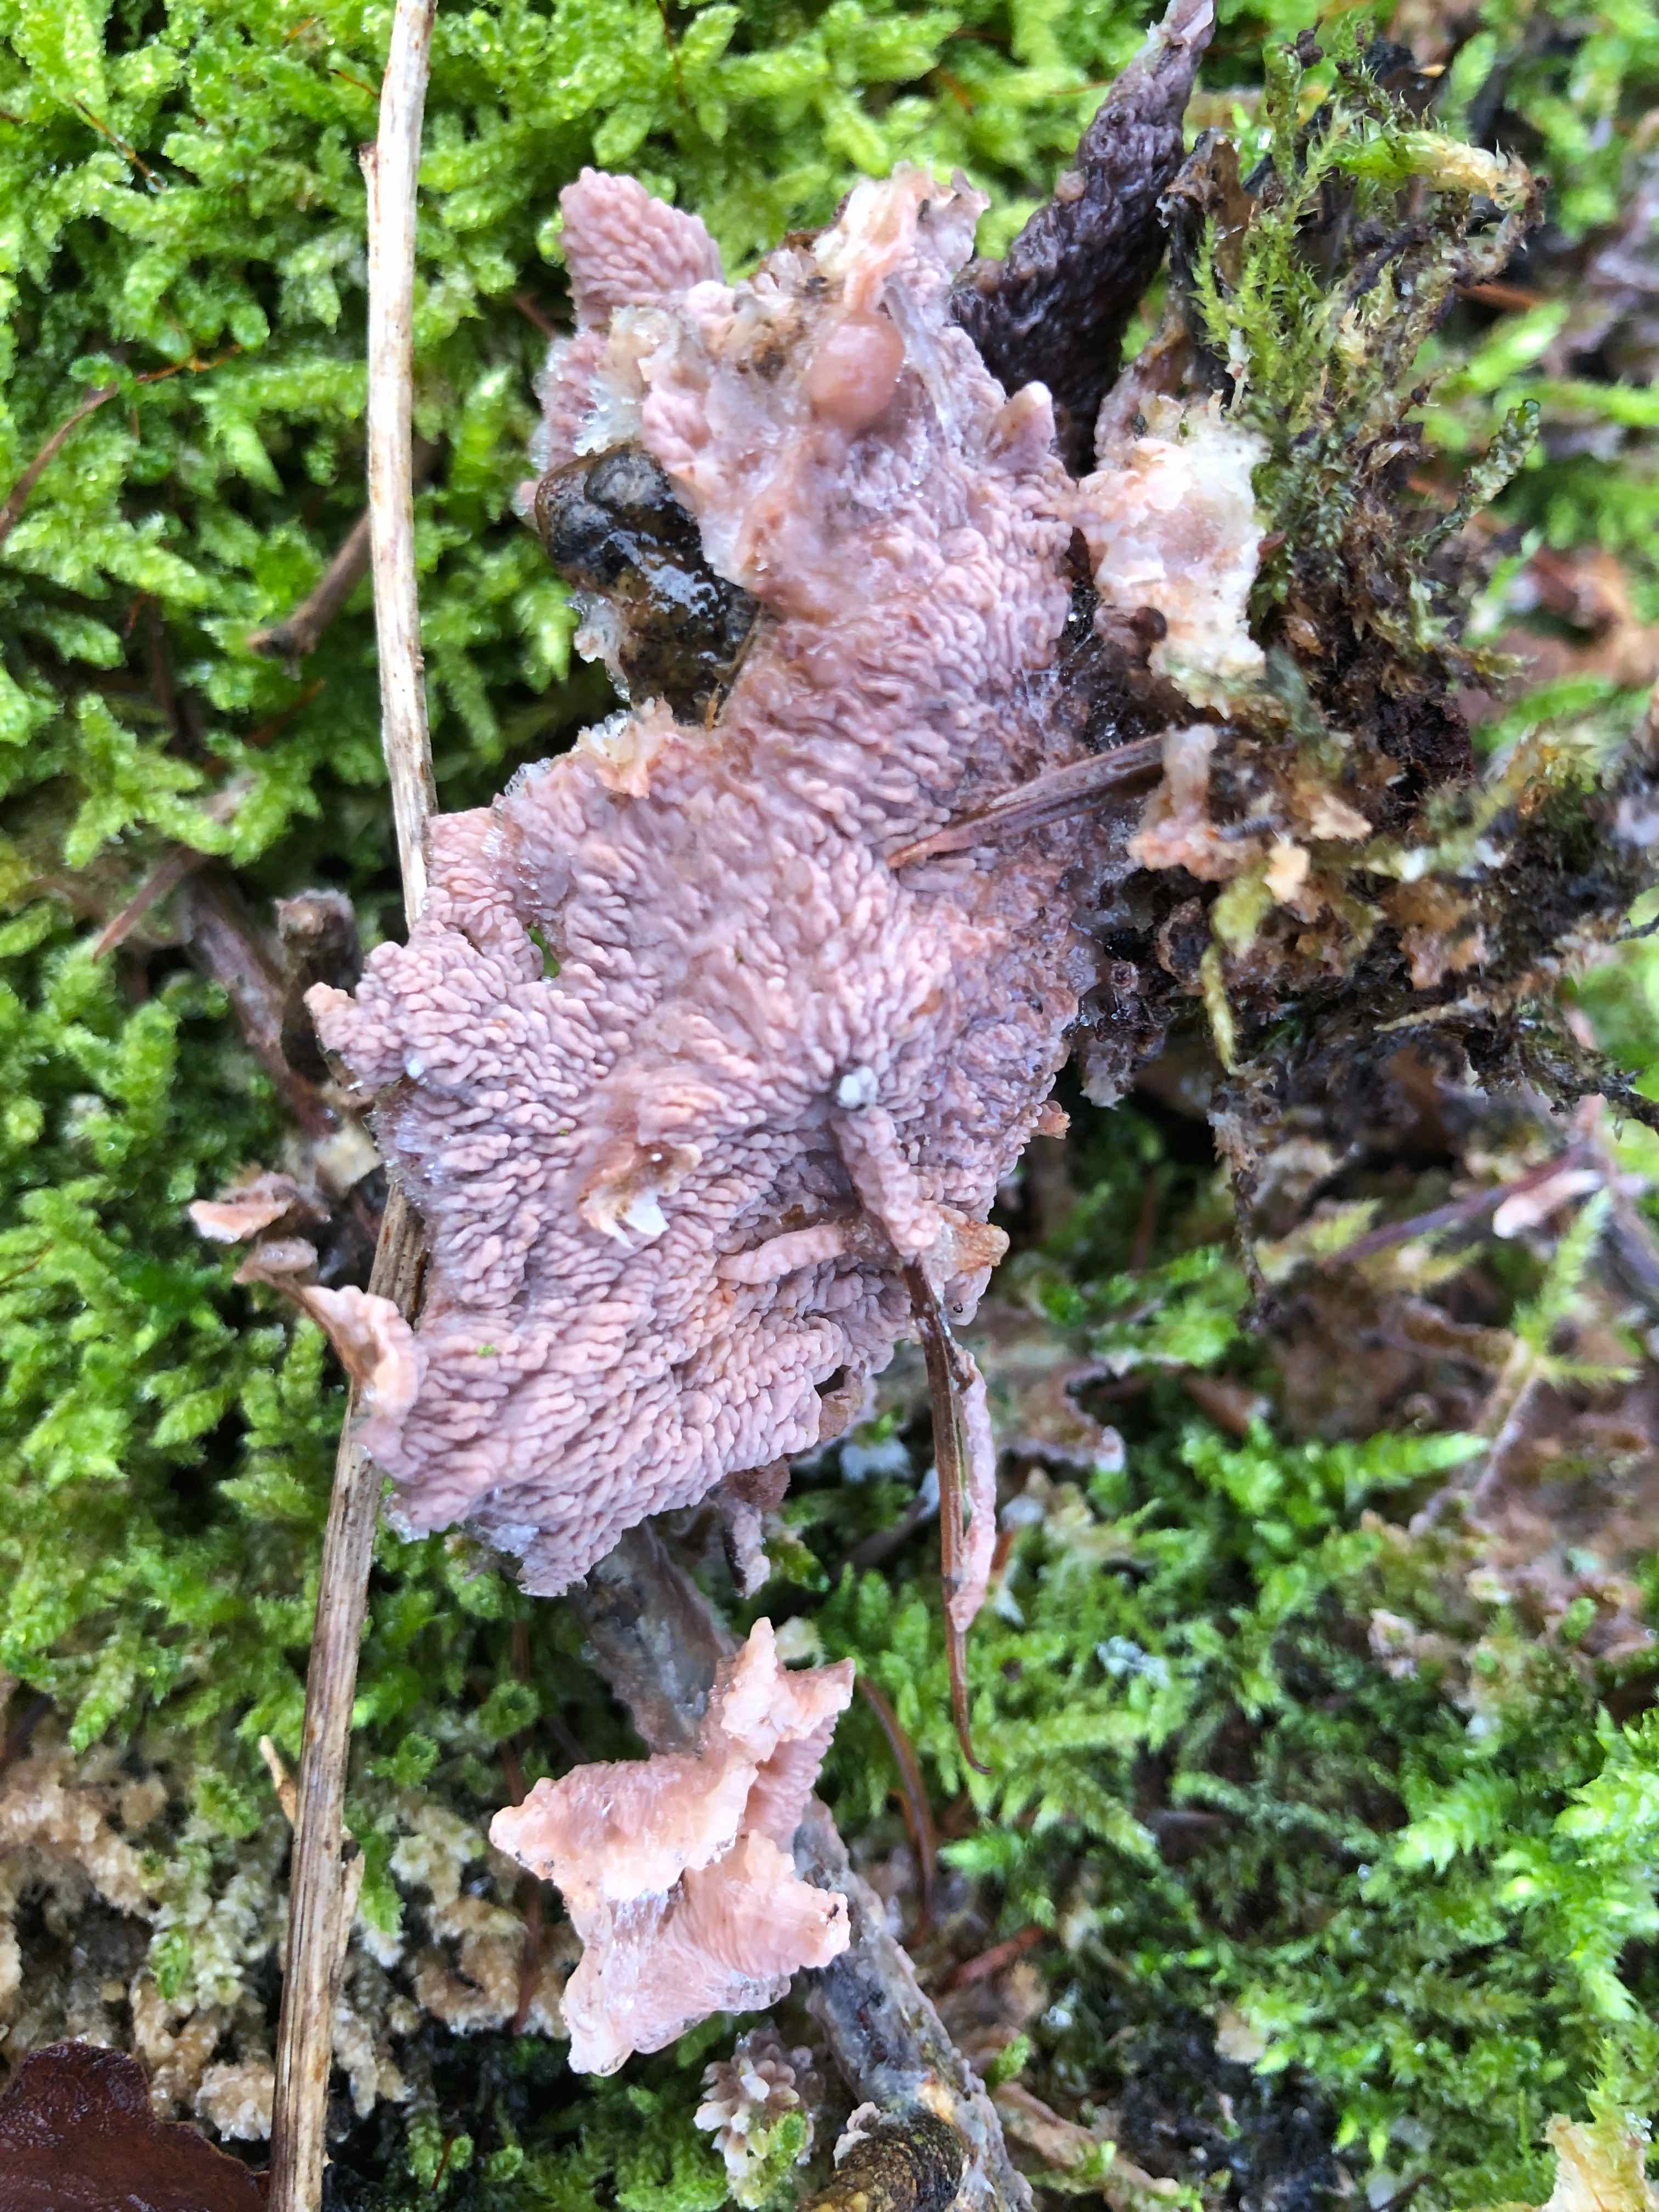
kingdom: Fungi
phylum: Basidiomycota
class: Agaricomycetes
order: Polyporales
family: Meruliaceae
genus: Phlebia
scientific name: Phlebia radiata
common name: stråle-åresvamp
